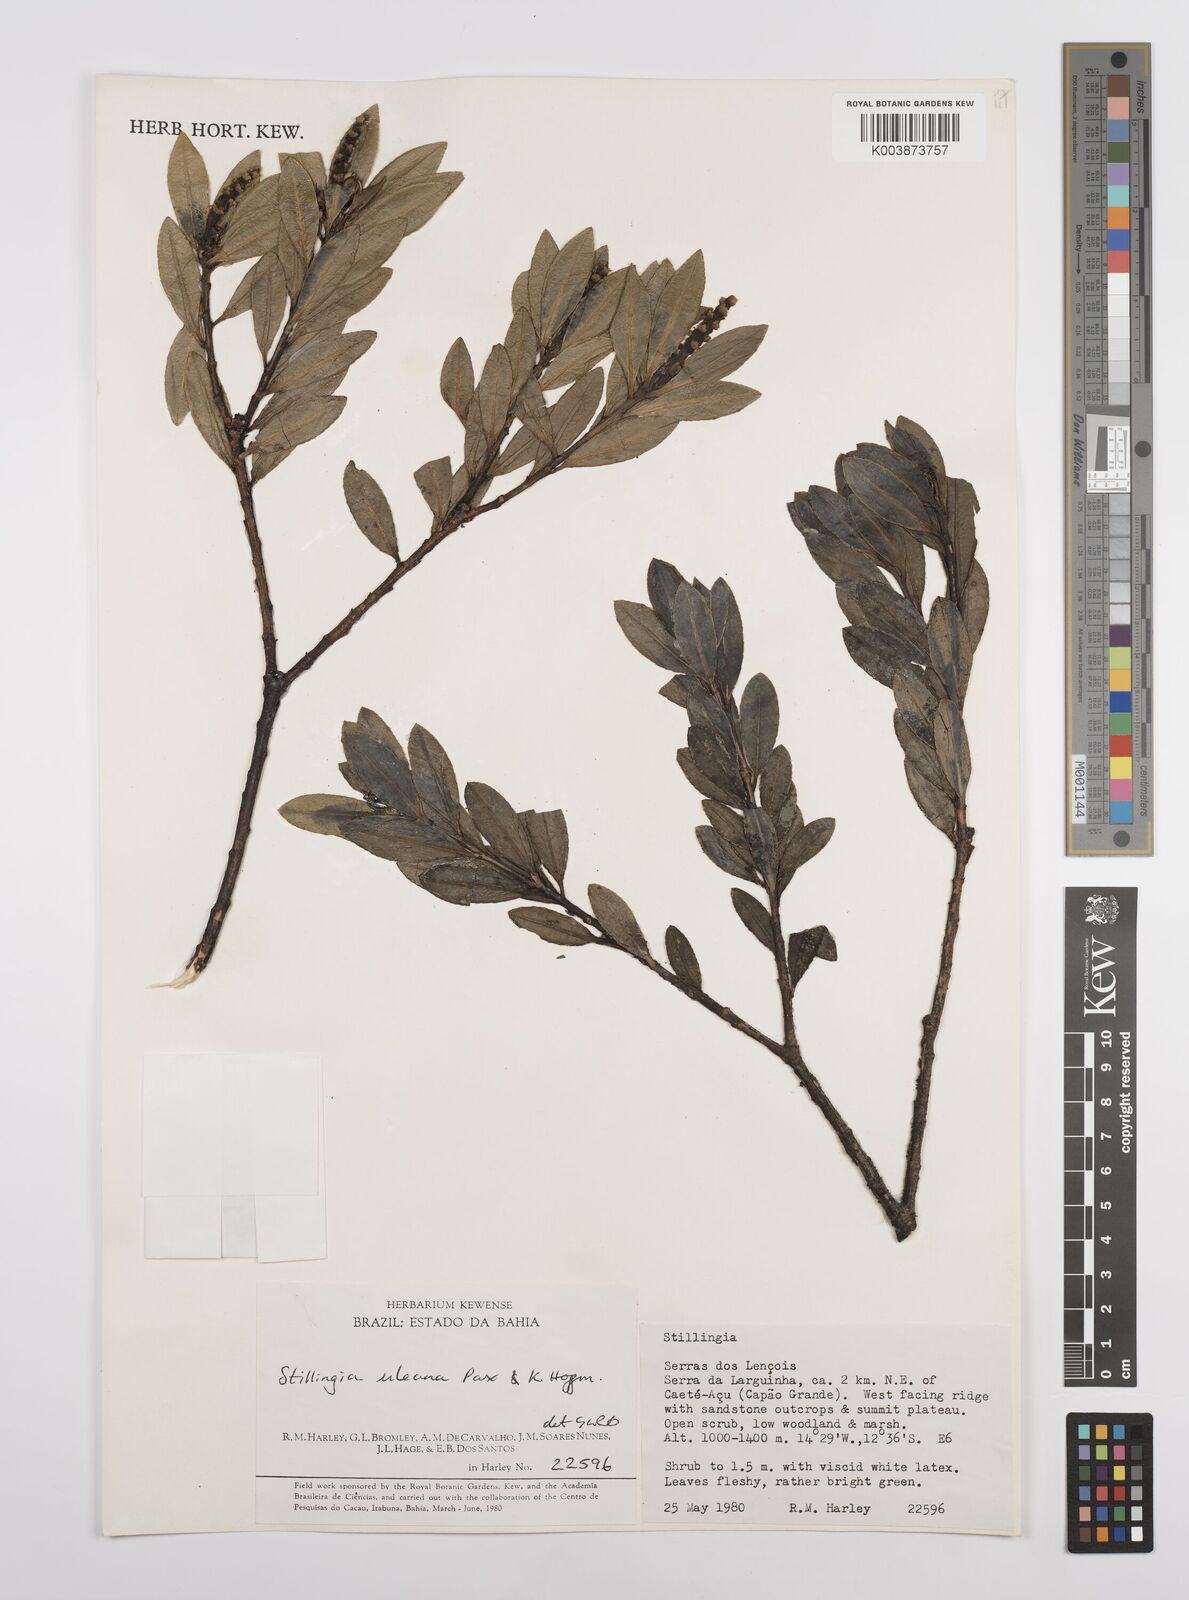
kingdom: Plantae
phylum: Tracheophyta
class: Magnoliopsida
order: Malpighiales
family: Euphorbiaceae
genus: Stillingia
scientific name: Stillingia uleana
